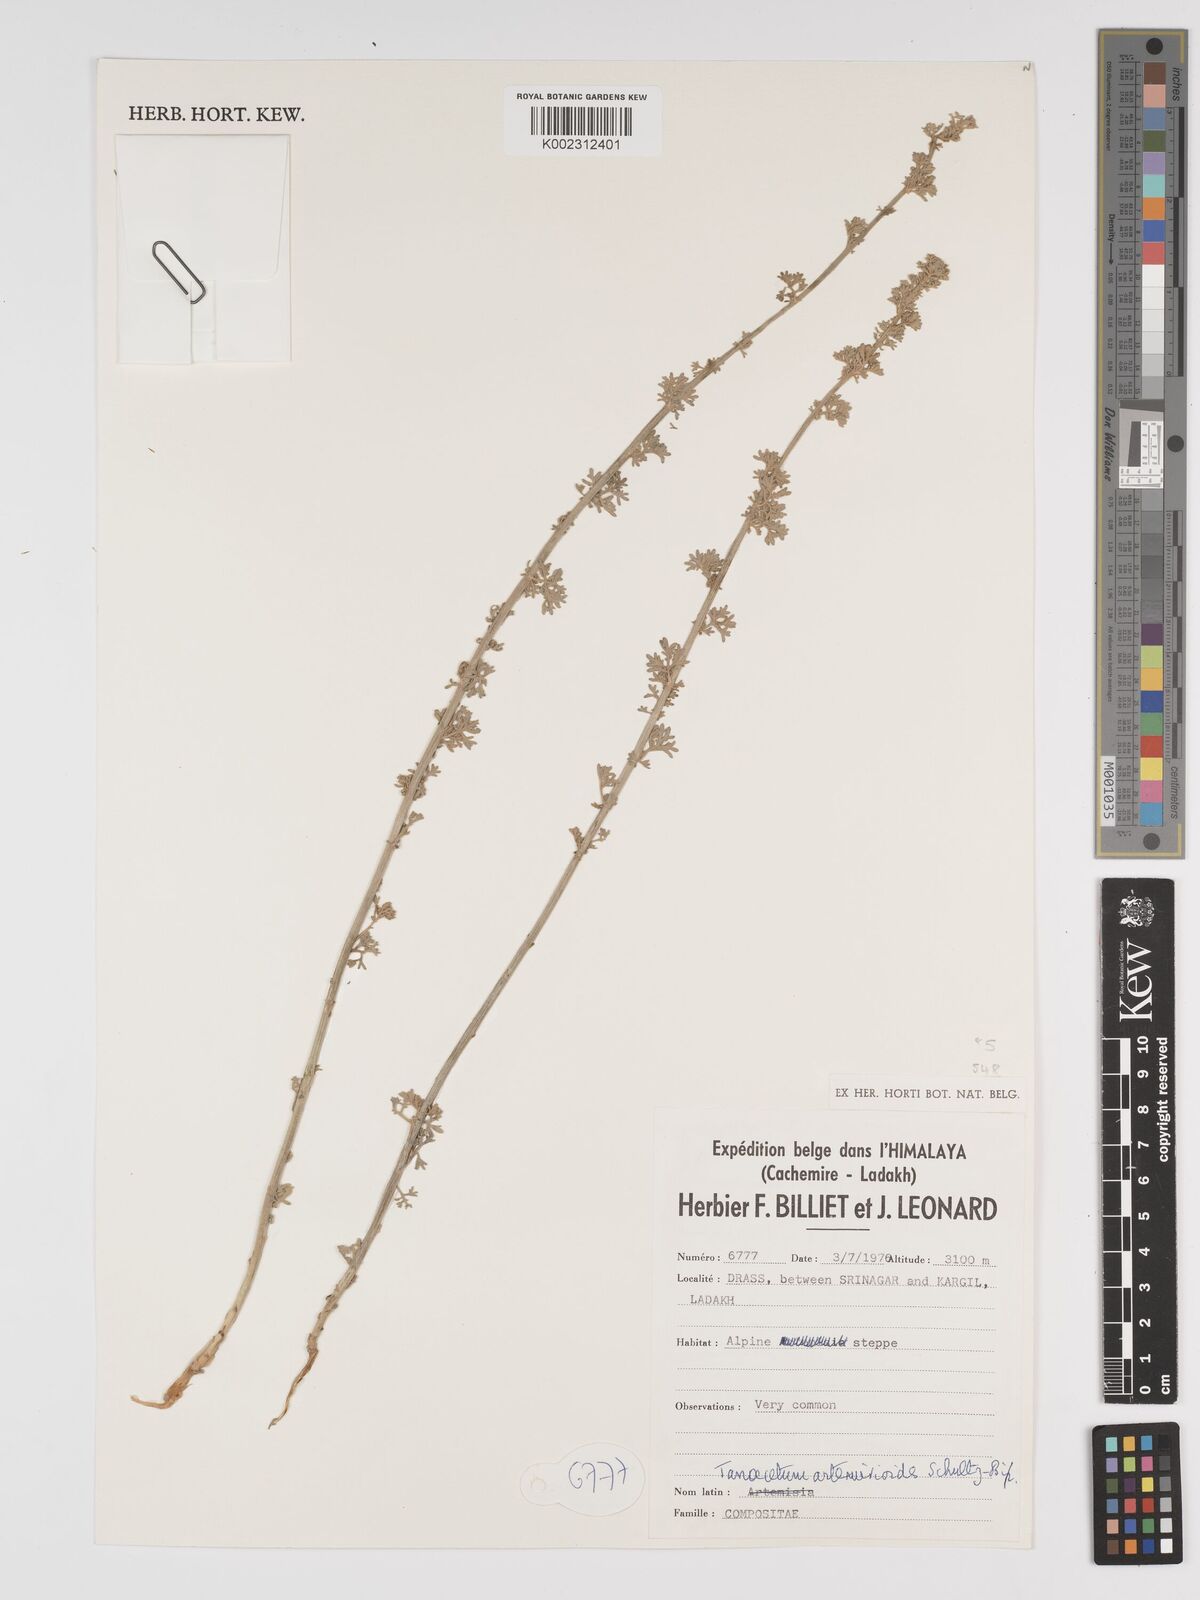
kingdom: Plantae
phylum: Tracheophyta
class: Magnoliopsida
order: Asterales
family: Asteraceae
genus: Tanacetum
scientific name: Tanacetum artemisioides
